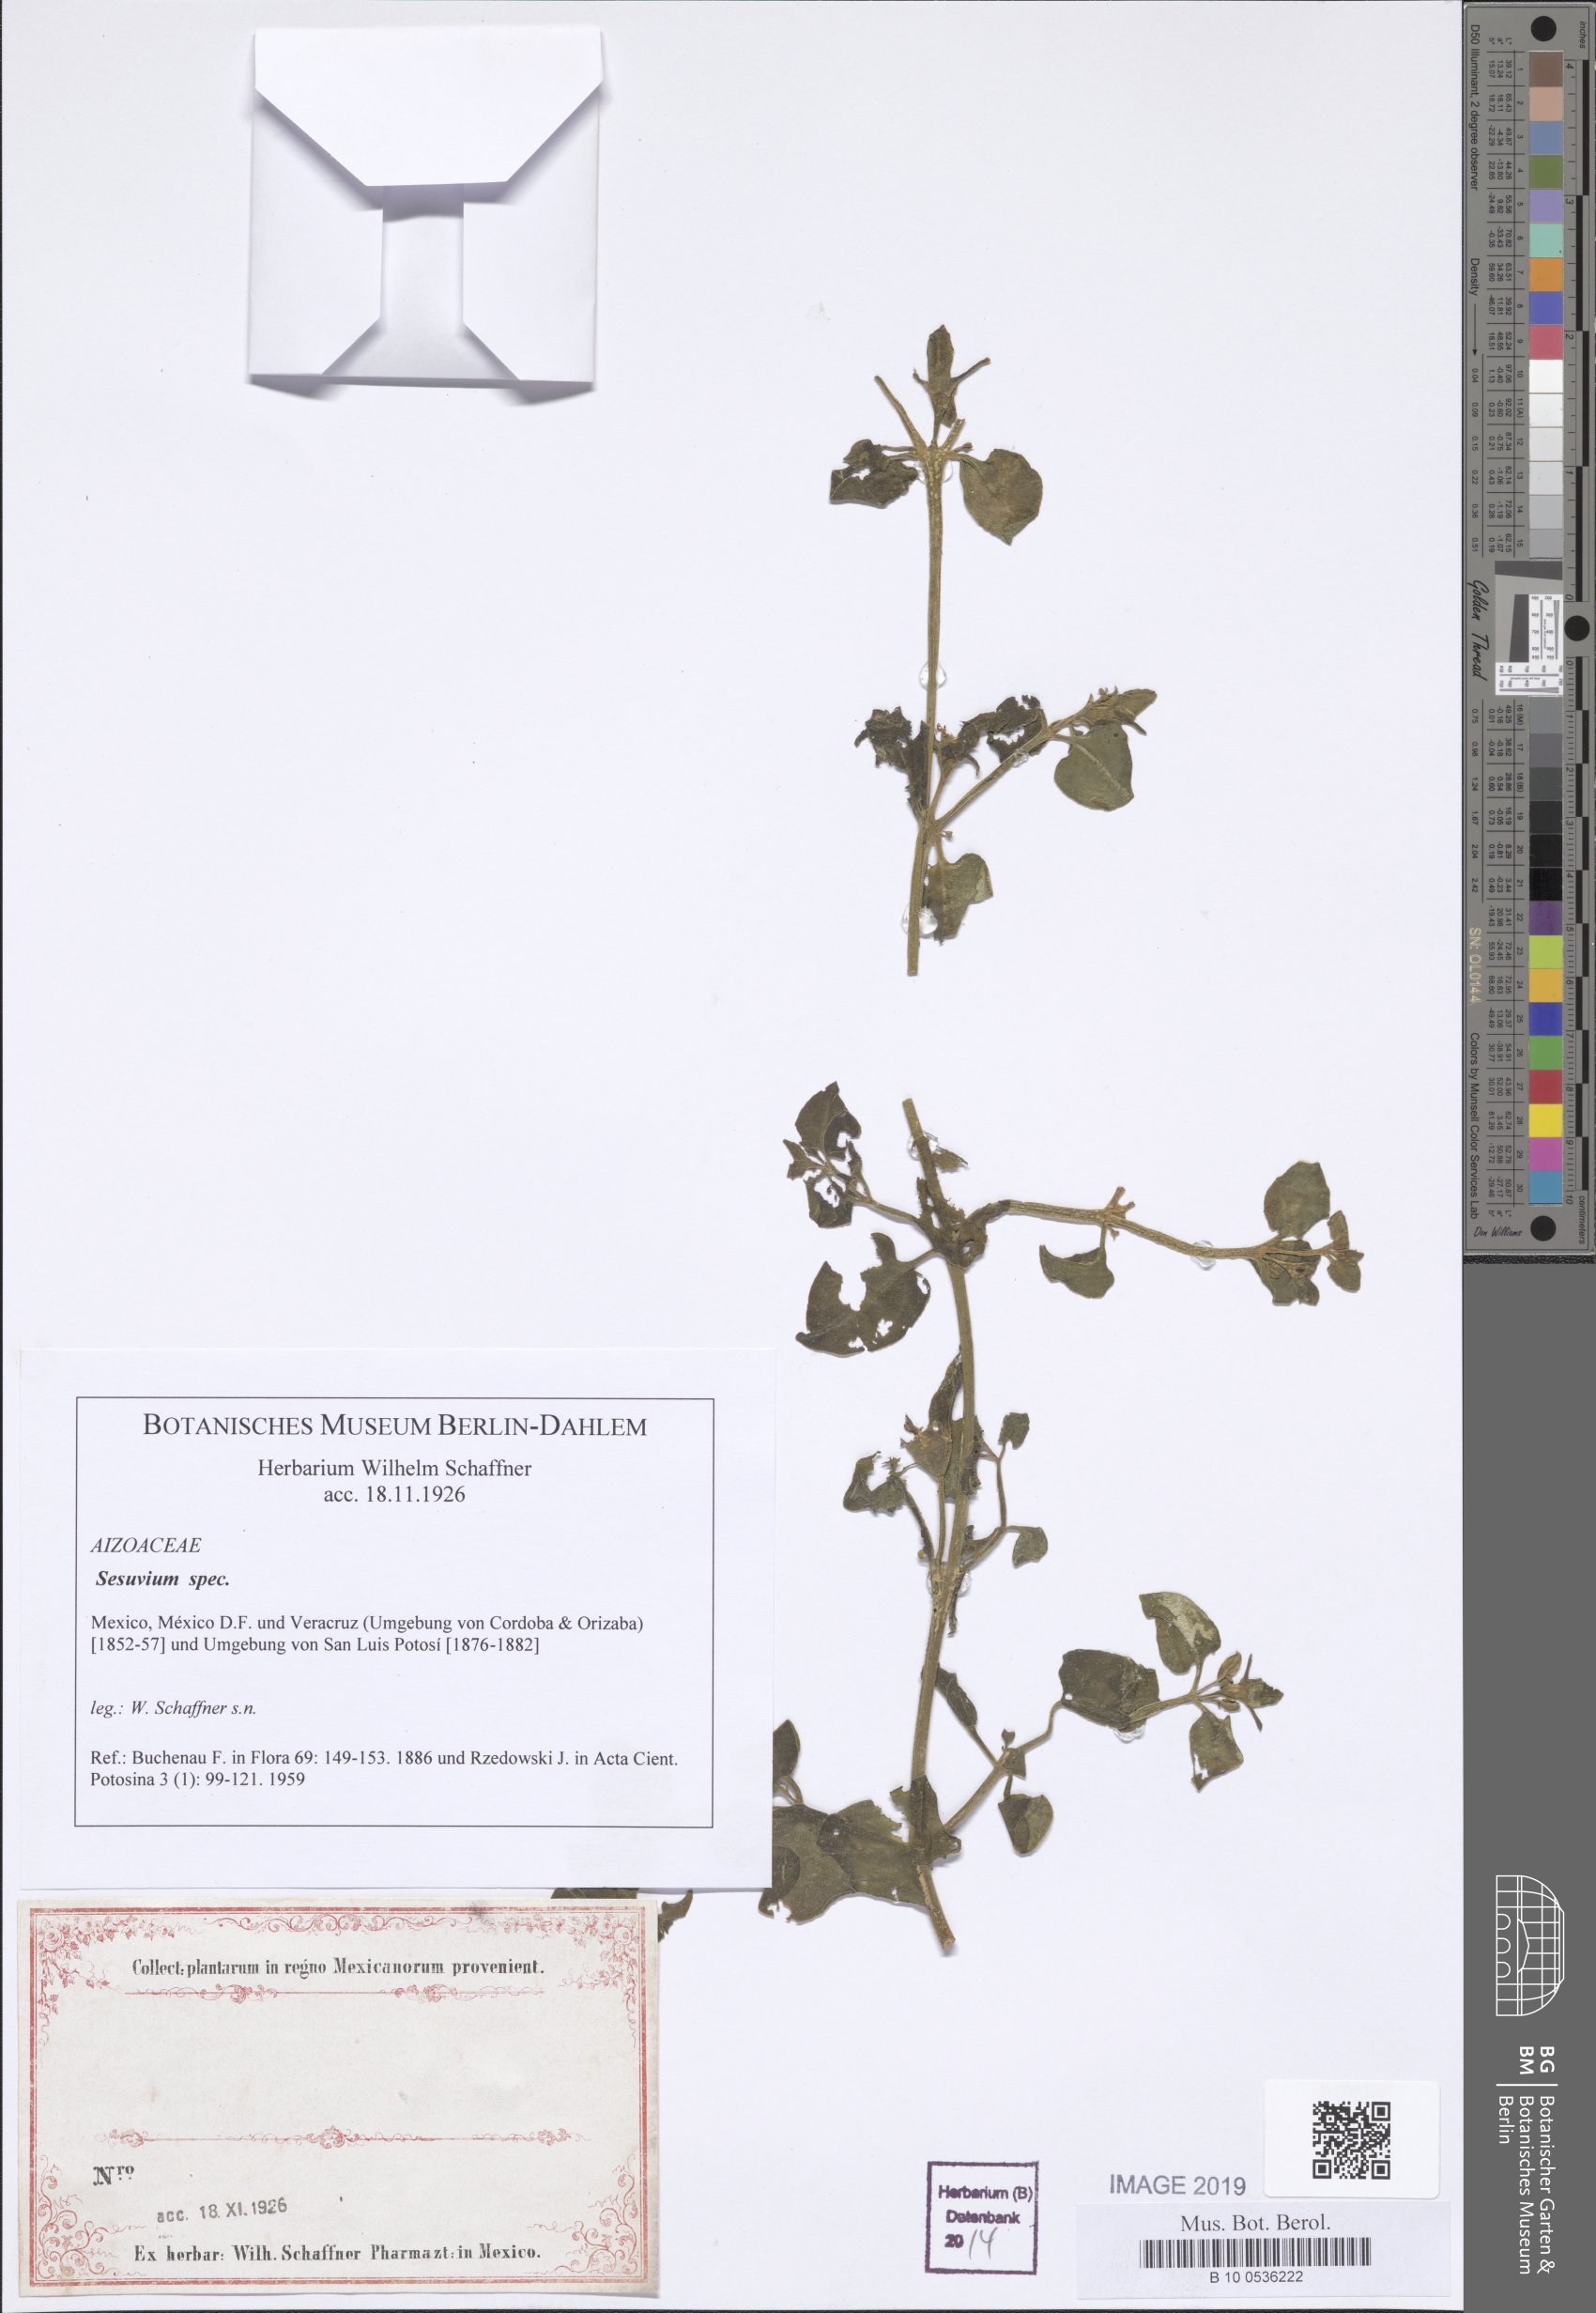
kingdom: Plantae
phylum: Tracheophyta
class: Magnoliopsida
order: Caryophyllales
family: Aizoaceae
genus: Sesuvium
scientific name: Sesuvium
